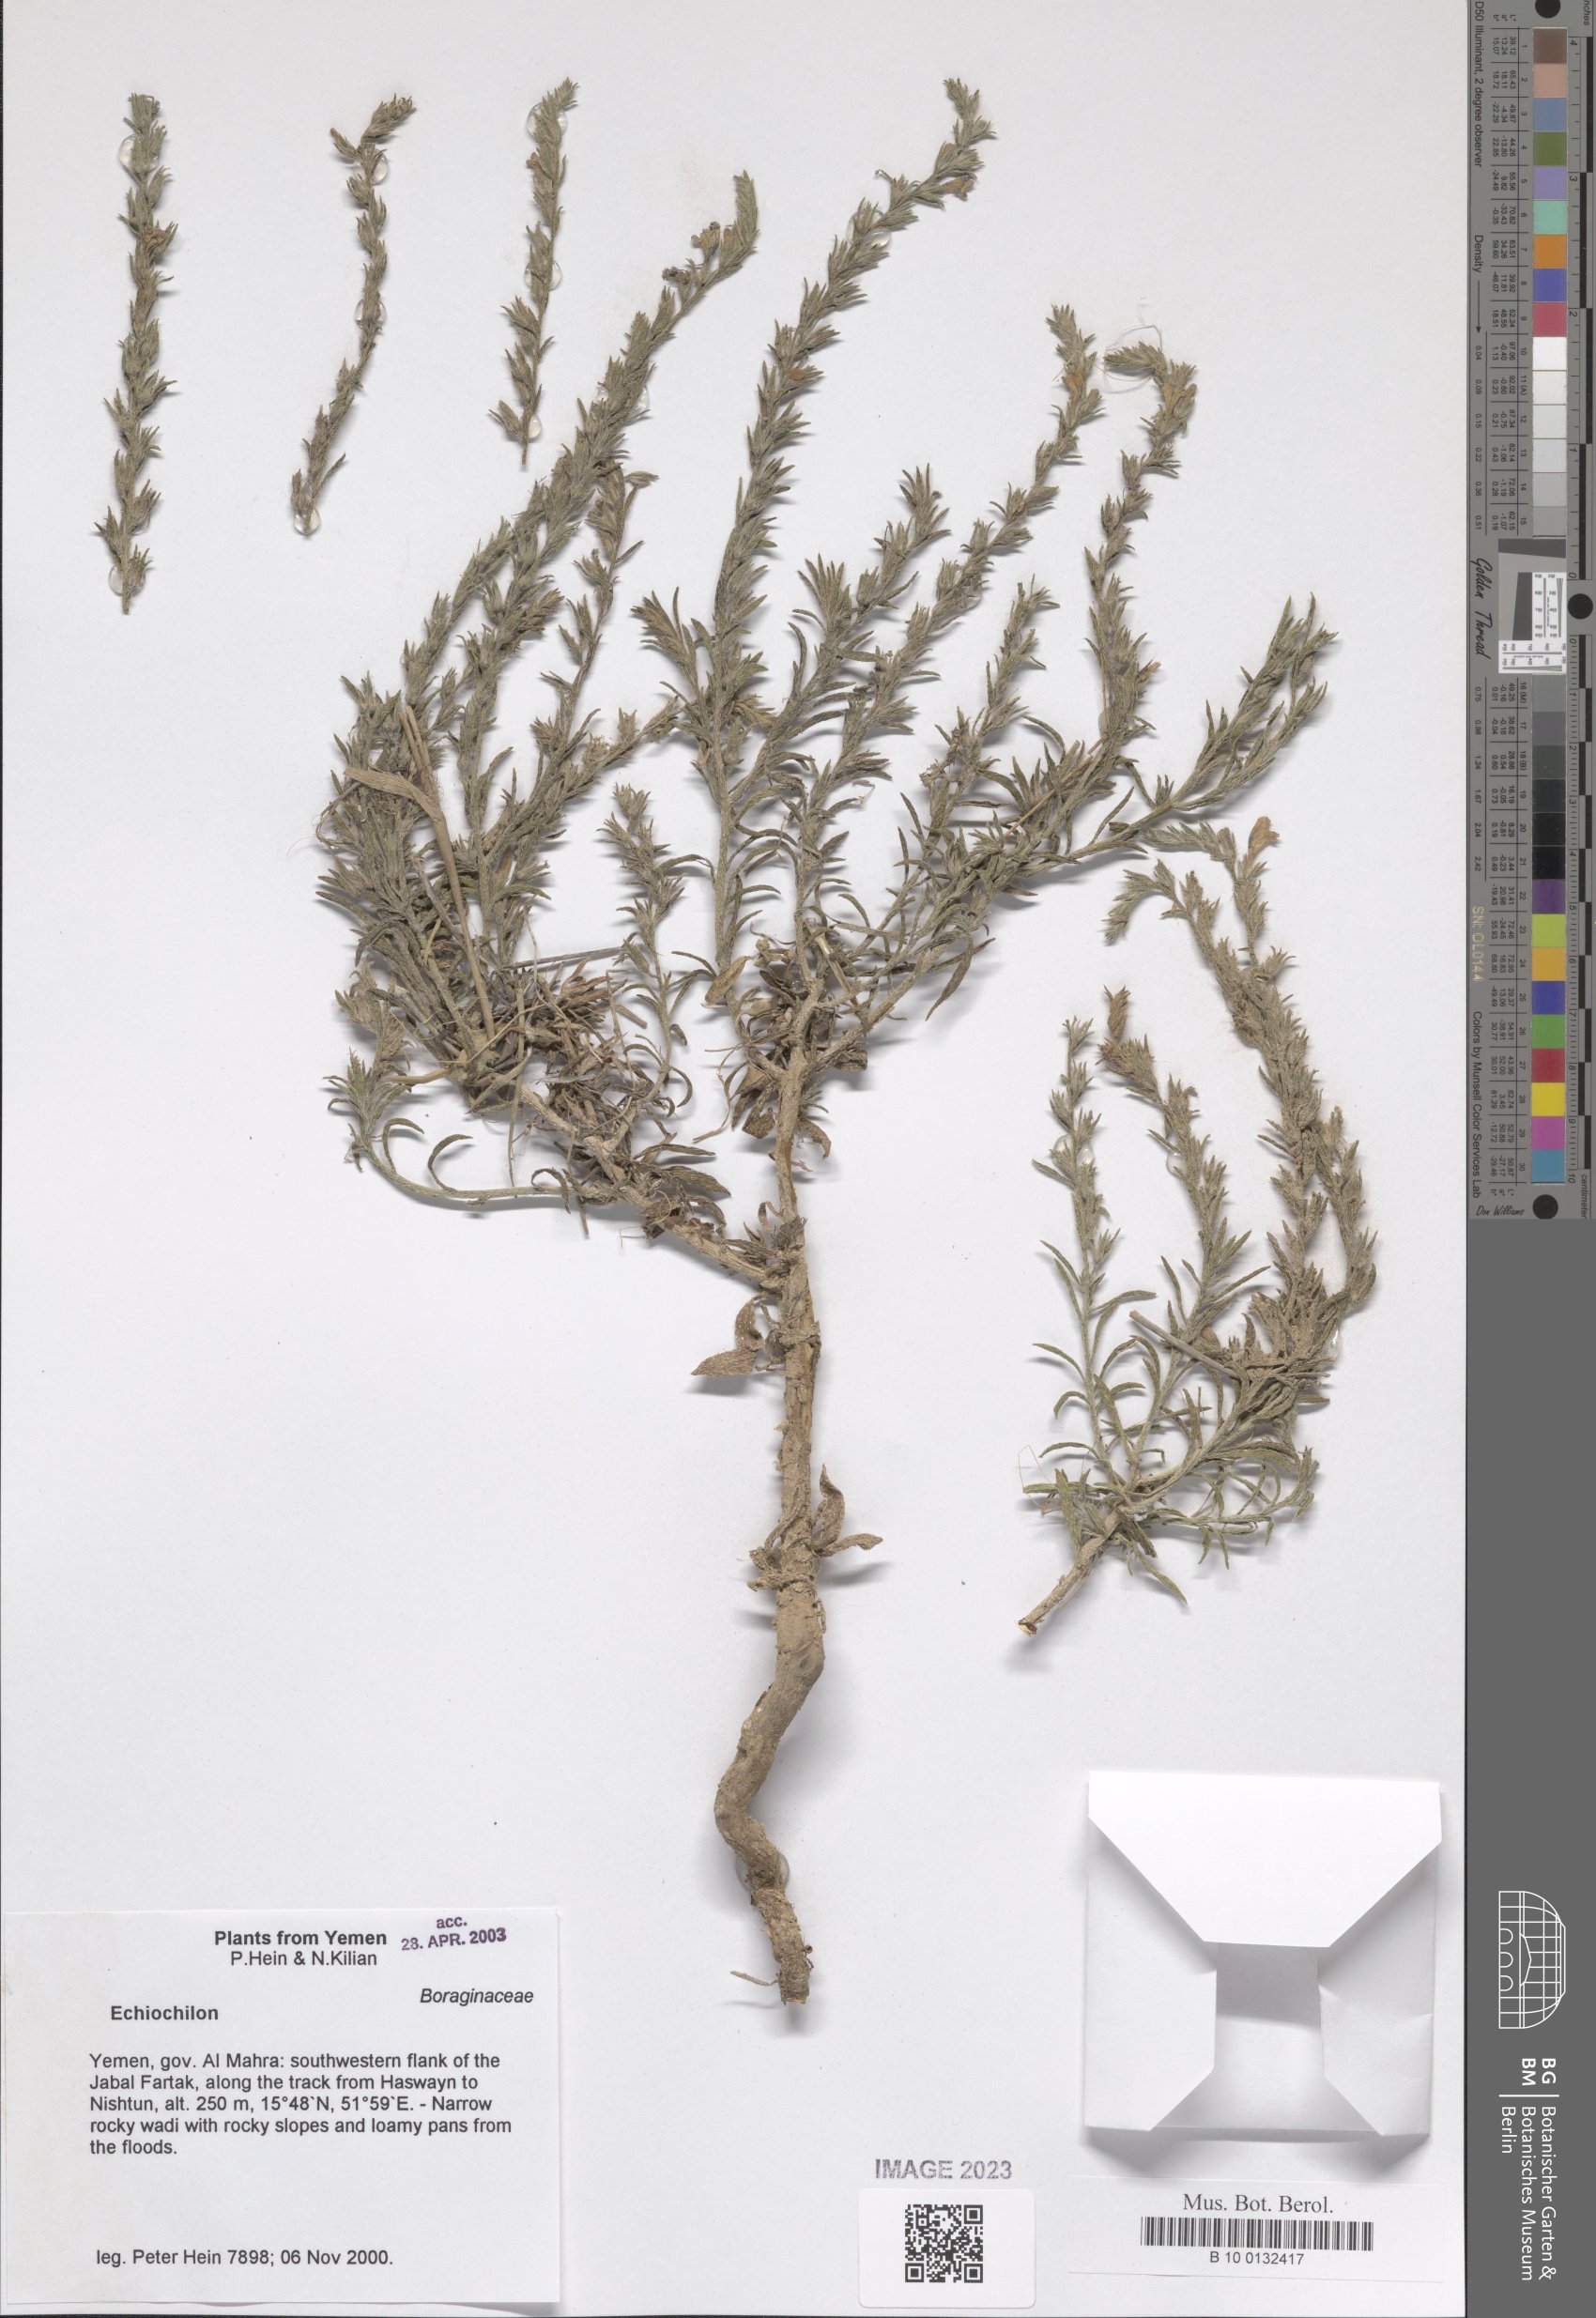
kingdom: Plantae
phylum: Tracheophyta
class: Magnoliopsida
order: Boraginales
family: Boraginaceae
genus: Echiochilon
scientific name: Echiochilon
